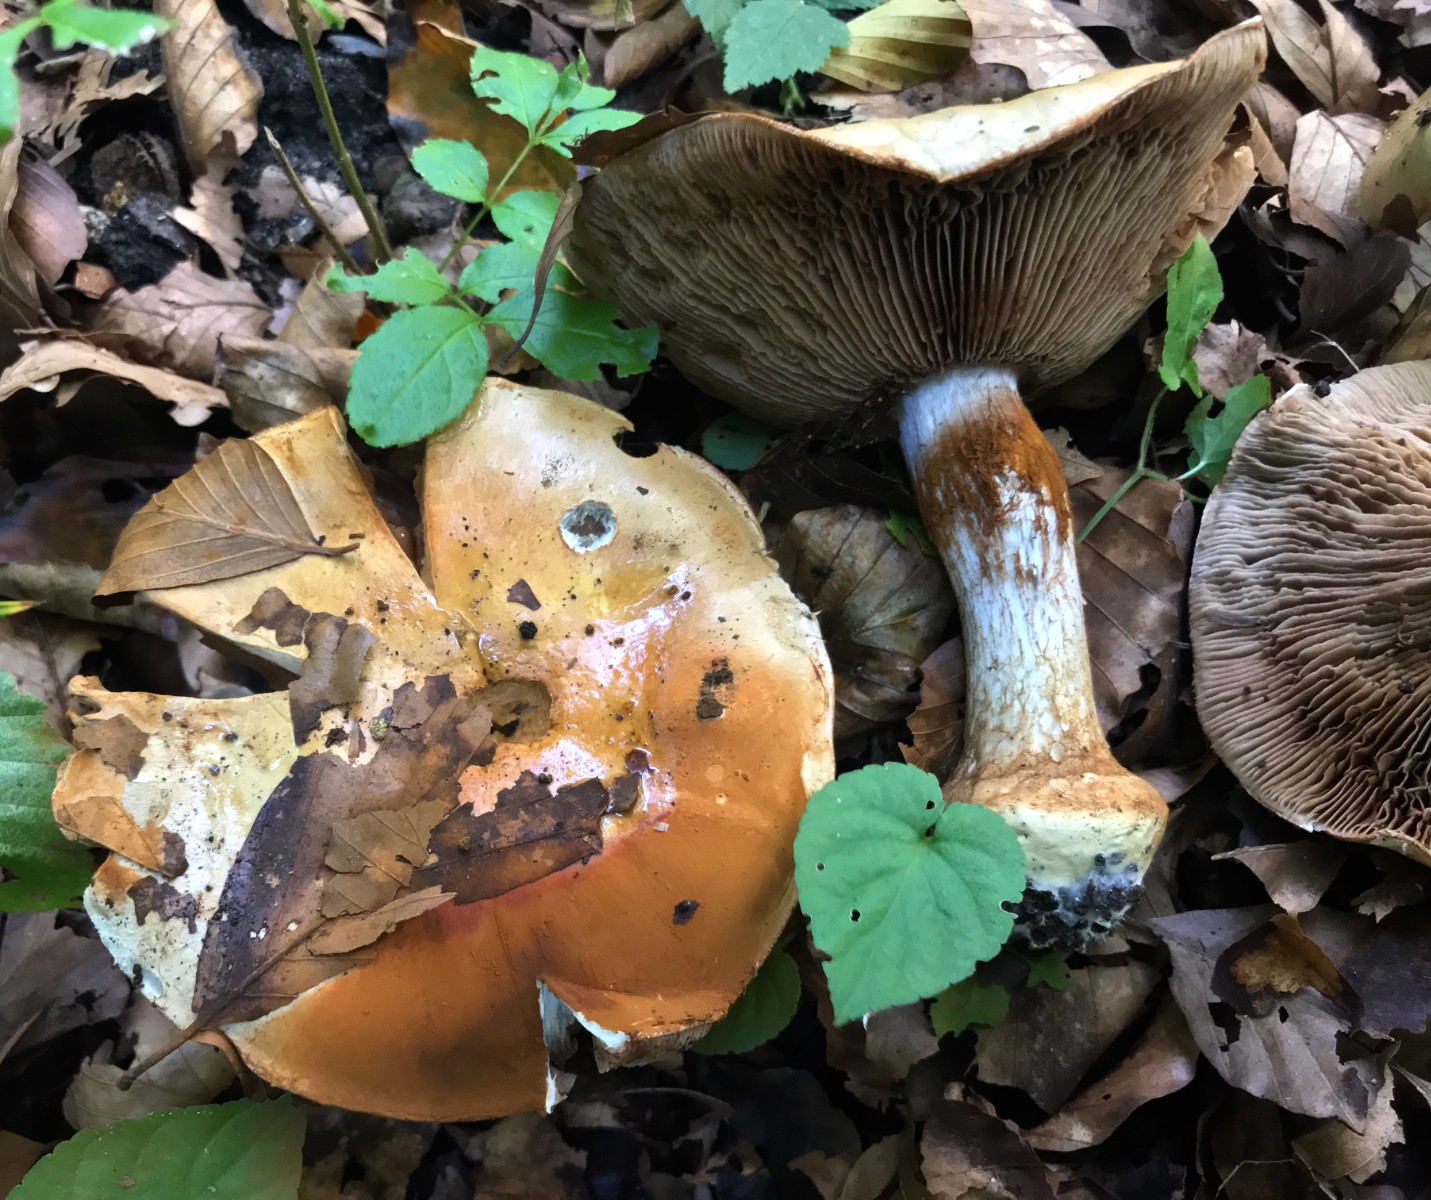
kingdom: Fungi
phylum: Basidiomycota
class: Agaricomycetes
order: Agaricales
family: Cortinariaceae
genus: Cortinarius
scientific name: Cortinarius anserinus
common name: bøge-slørhat
